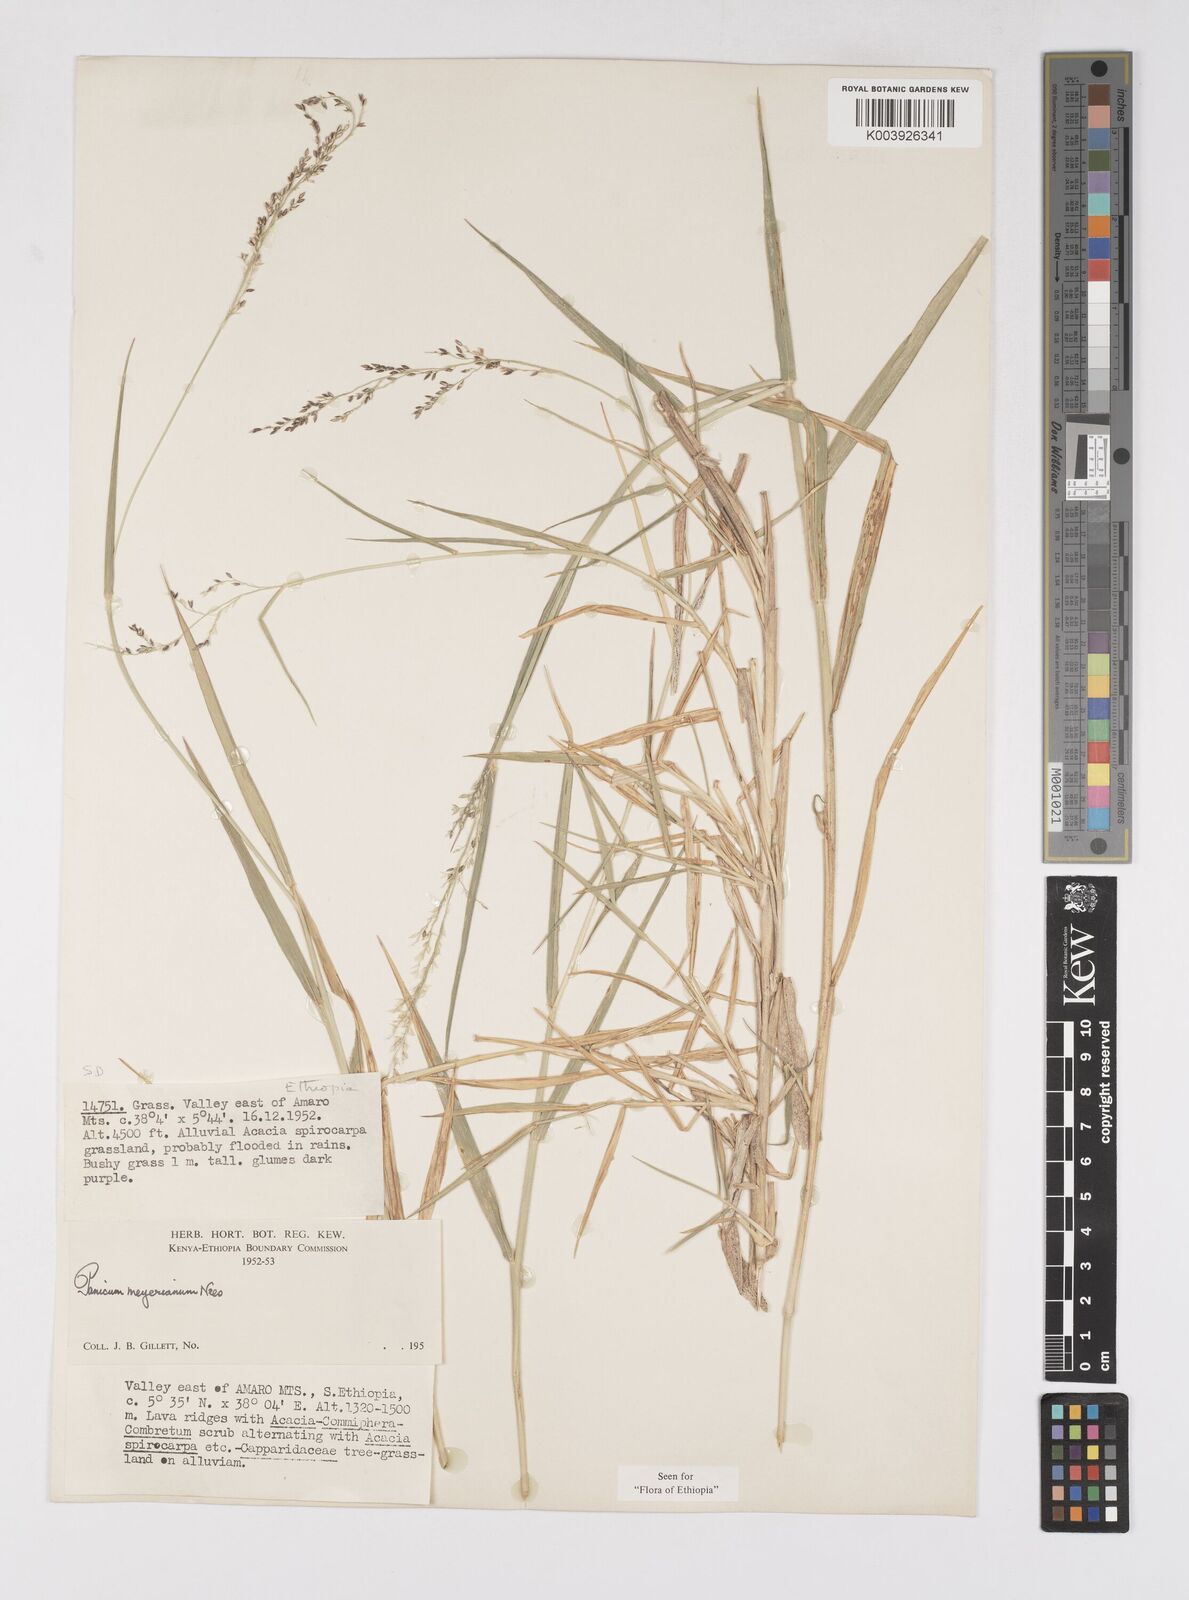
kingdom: Plantae
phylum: Tracheophyta
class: Liliopsida
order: Poales
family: Poaceae
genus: Eriochloa
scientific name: Eriochloa meyeriana
